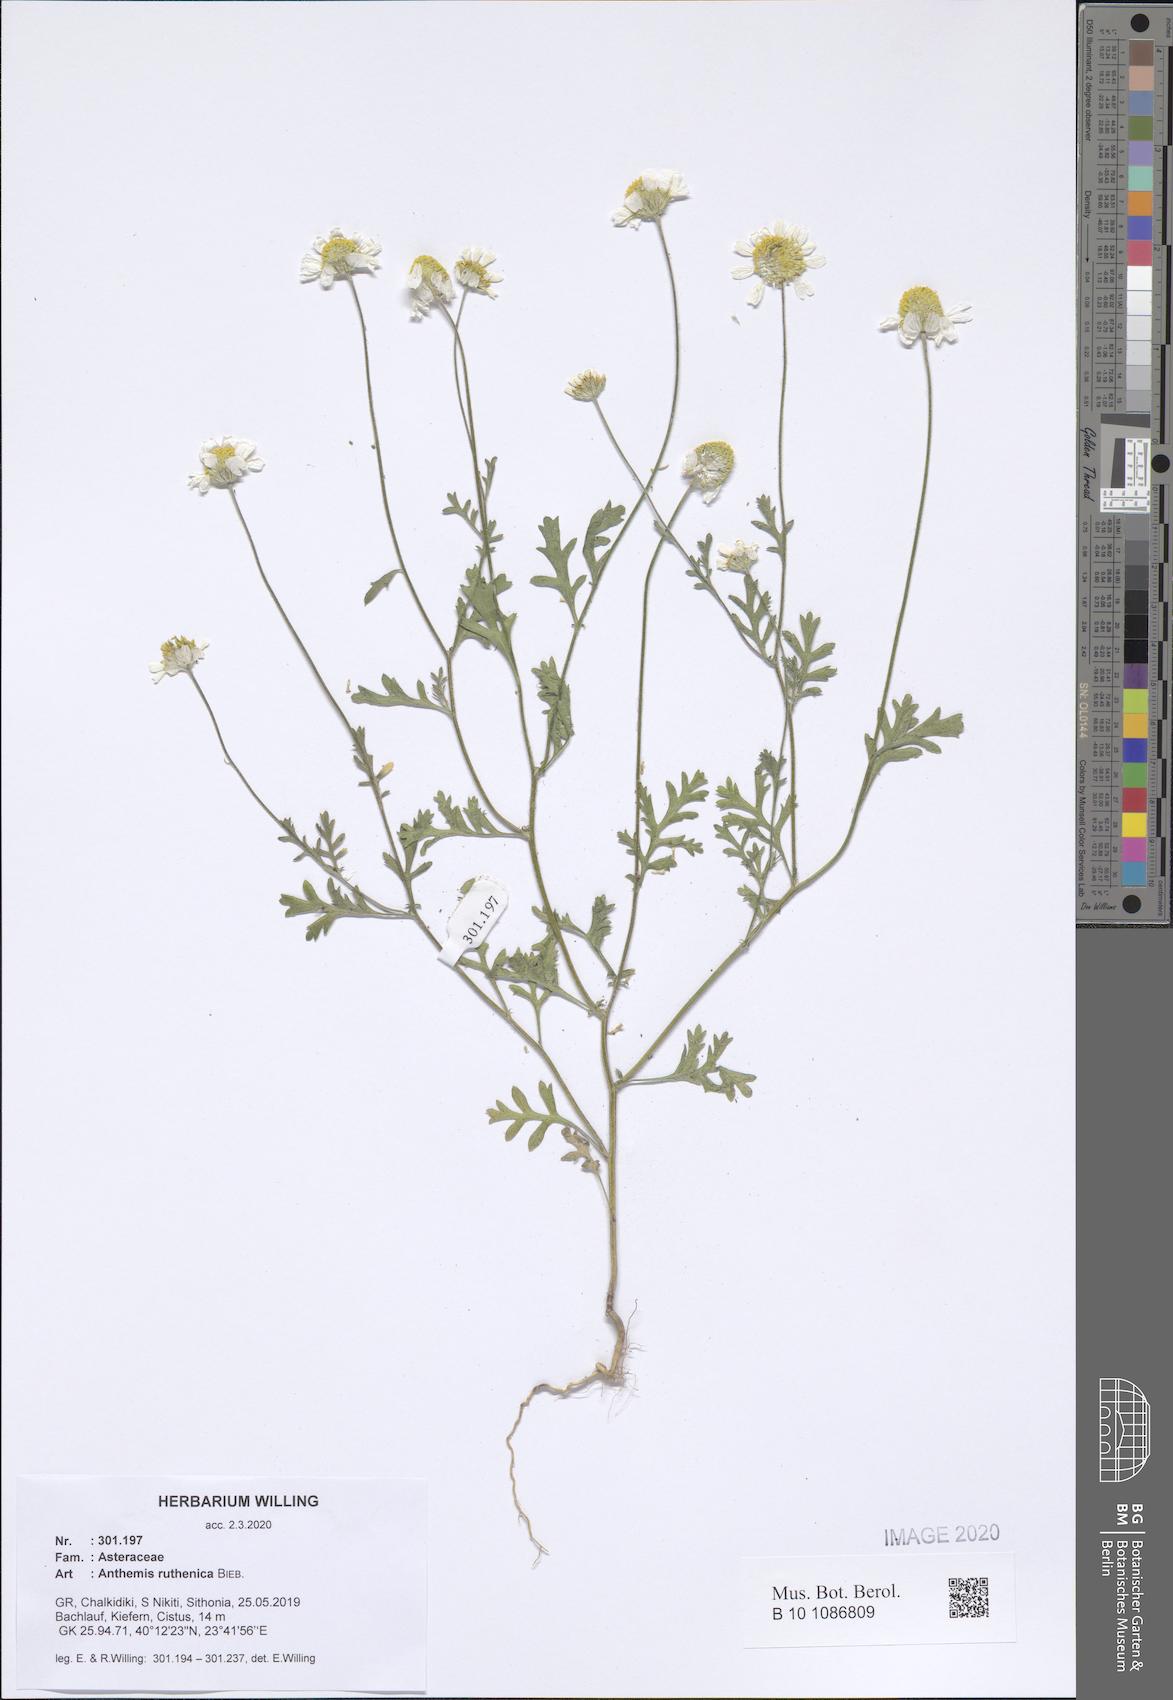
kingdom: Plantae
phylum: Tracheophyta
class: Magnoliopsida
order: Asterales
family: Asteraceae
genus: Anthemis
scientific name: Anthemis ruthenica
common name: Eastern chamomile
